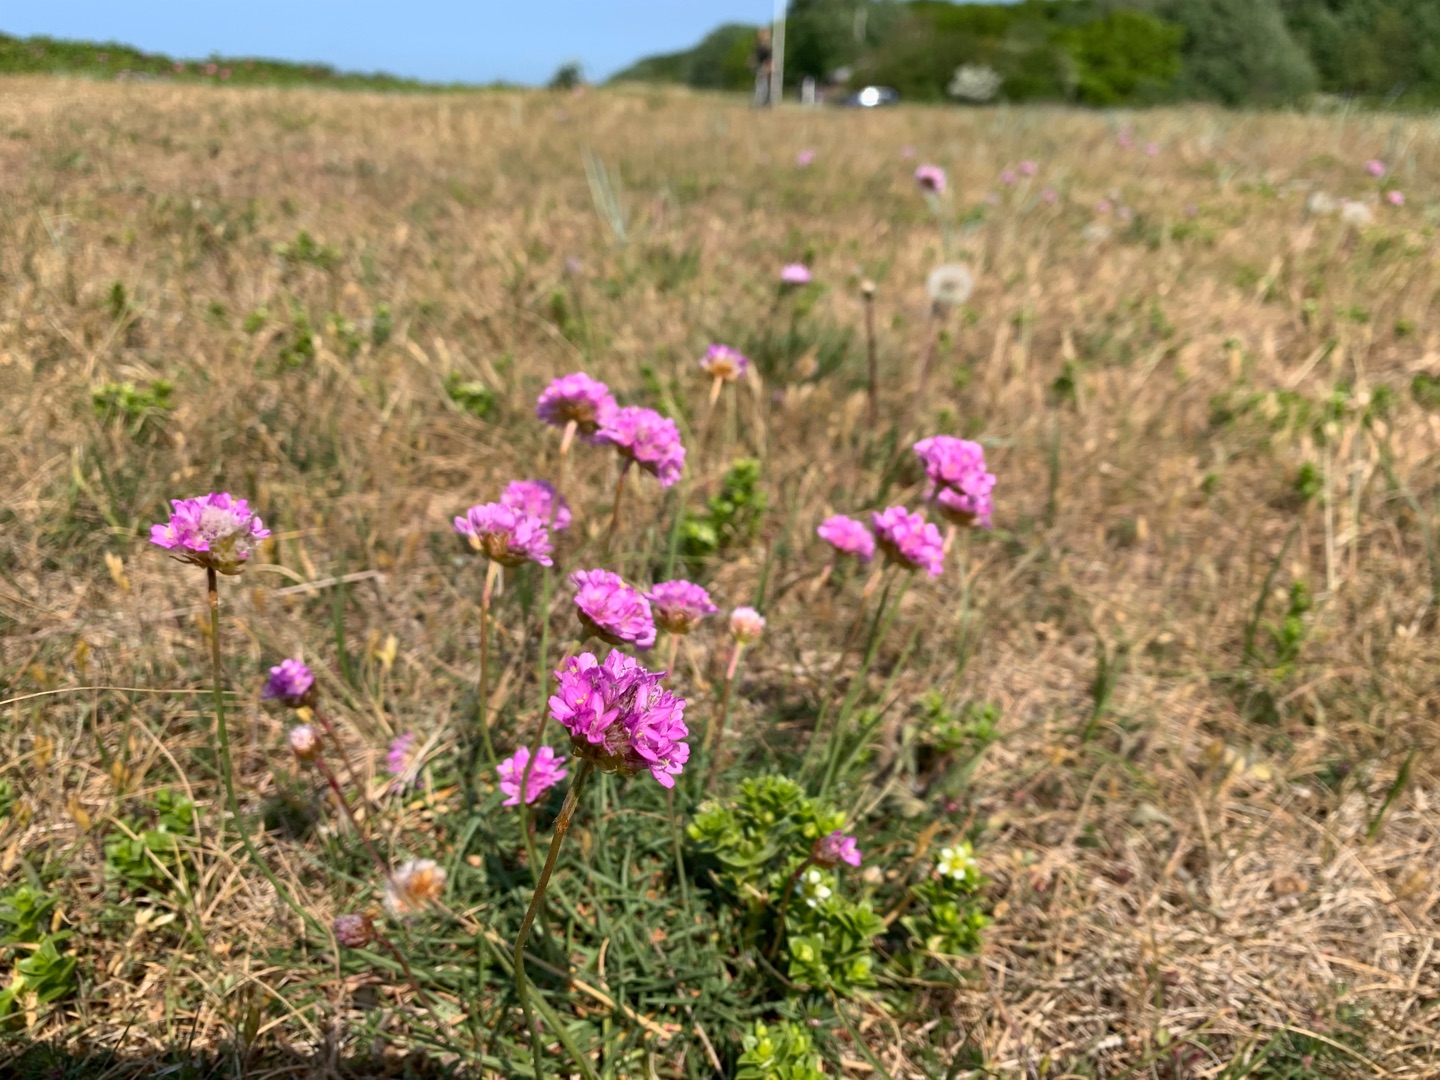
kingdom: Plantae
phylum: Tracheophyta
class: Magnoliopsida
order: Caryophyllales
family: Plumbaginaceae
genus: Armeria
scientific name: Armeria maritima
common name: Engelskgræs
